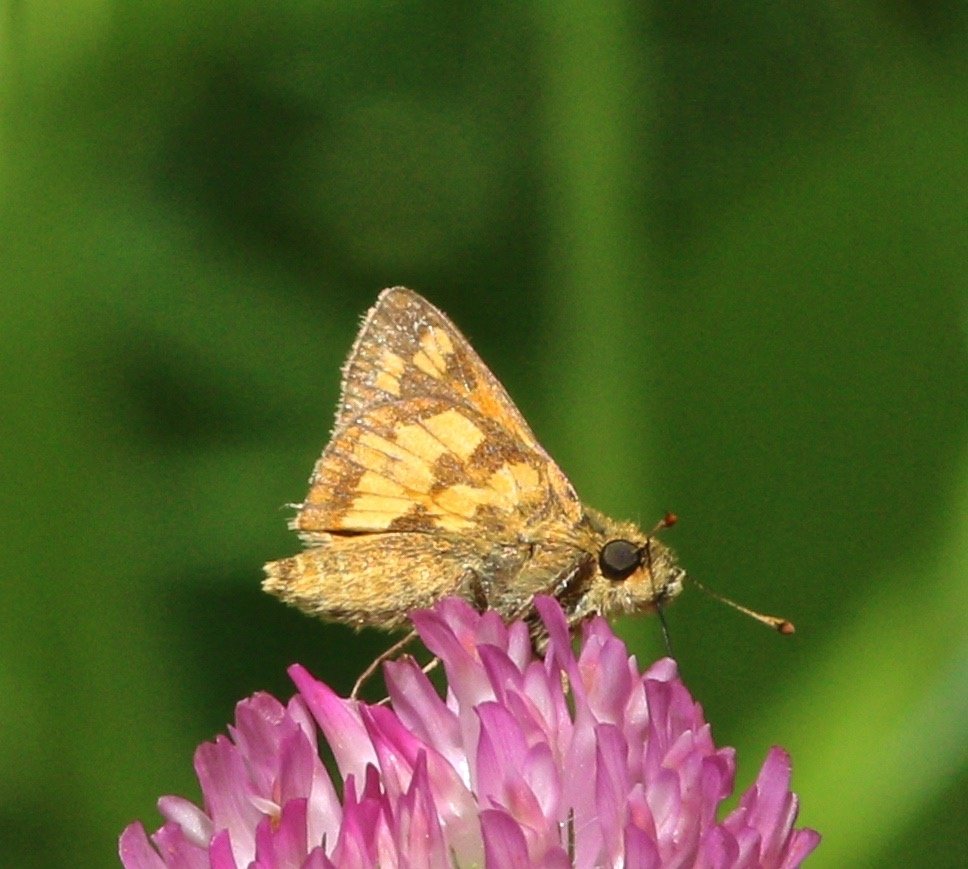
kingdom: Animalia
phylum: Arthropoda
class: Insecta
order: Lepidoptera
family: Hesperiidae
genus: Polites
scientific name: Polites coras
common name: Peck's Skipper
